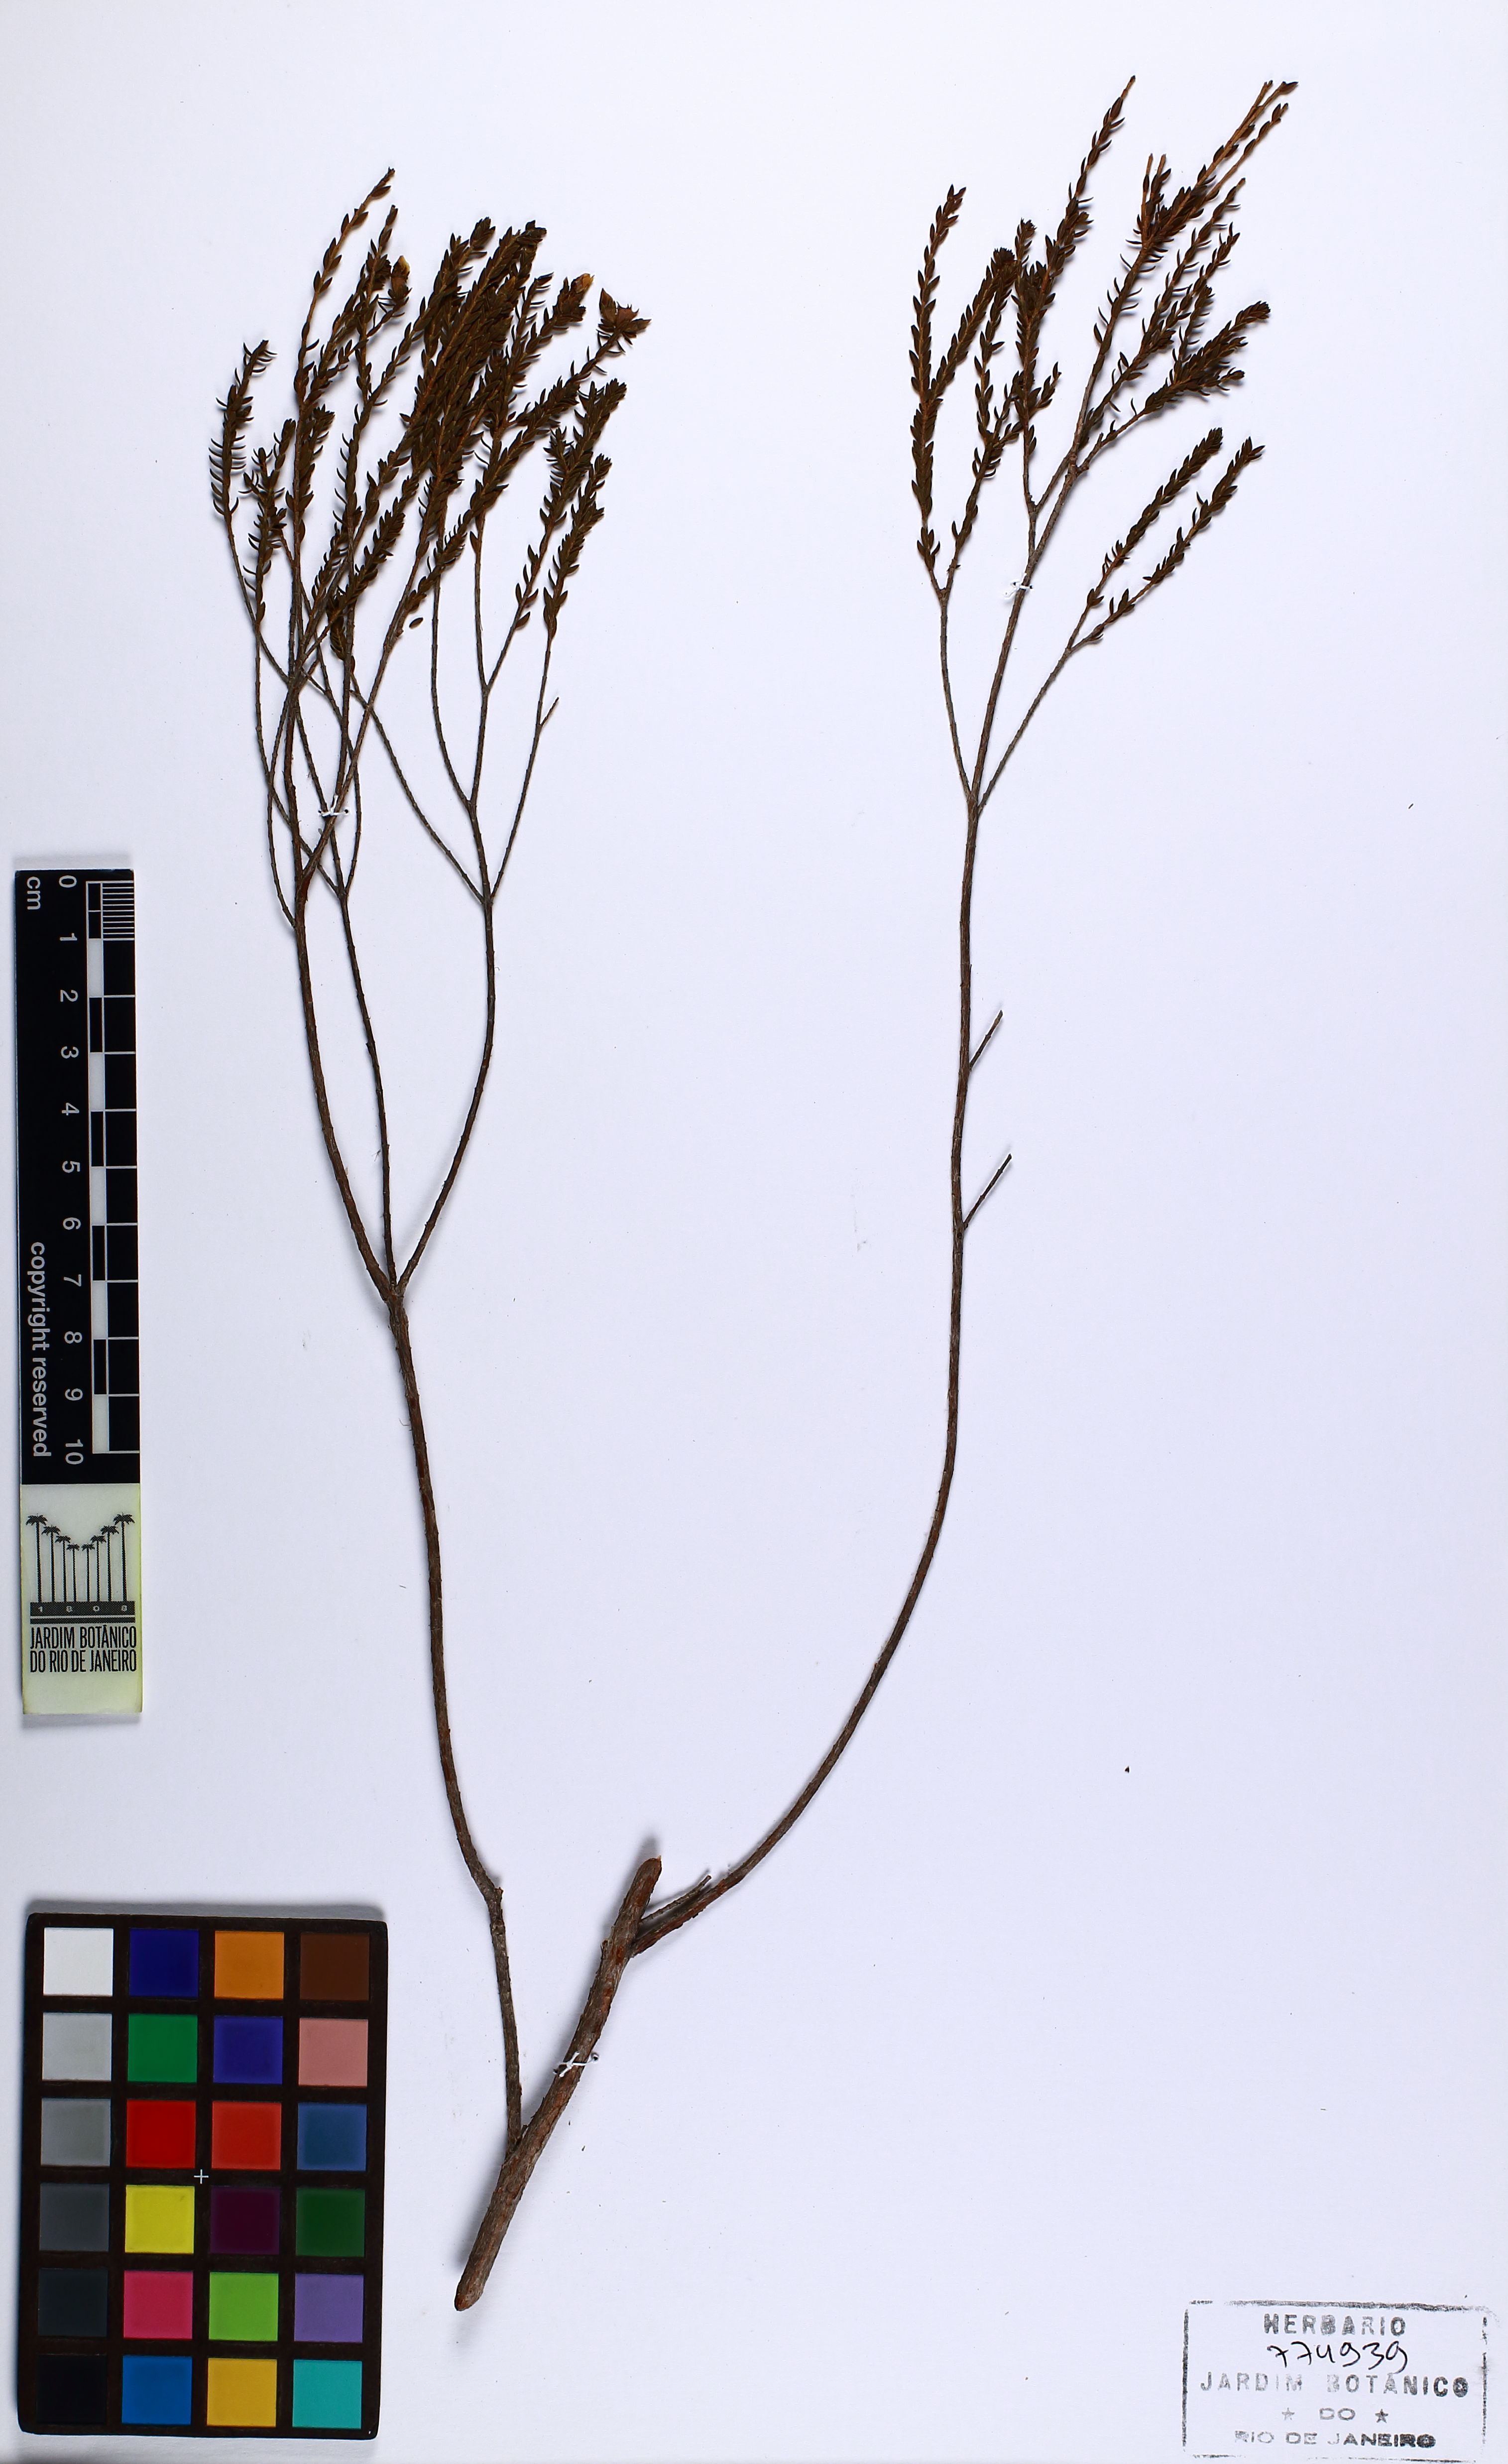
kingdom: Plantae
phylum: Tracheophyta
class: Magnoliopsida
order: Myrtales
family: Melastomataceae
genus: Microlicia
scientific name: Microlicia sulfurea
